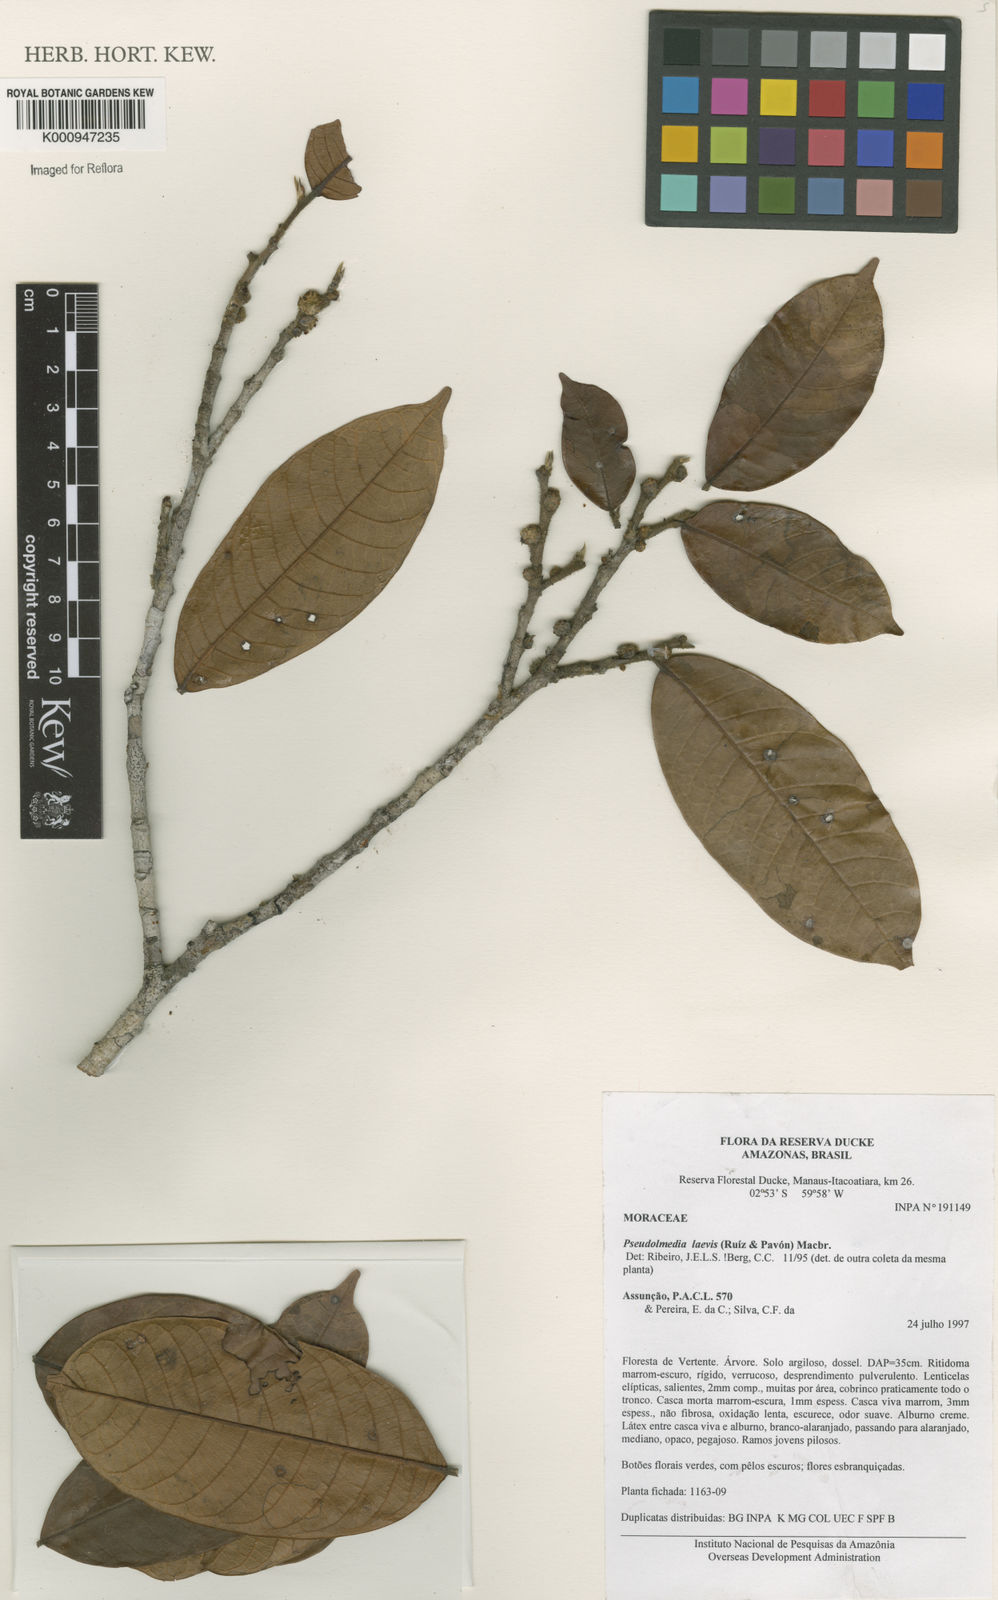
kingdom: Plantae
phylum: Tracheophyta
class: Magnoliopsida
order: Rosales
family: Moraceae
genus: Pseudolmedia
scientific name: Pseudolmedia laevis
